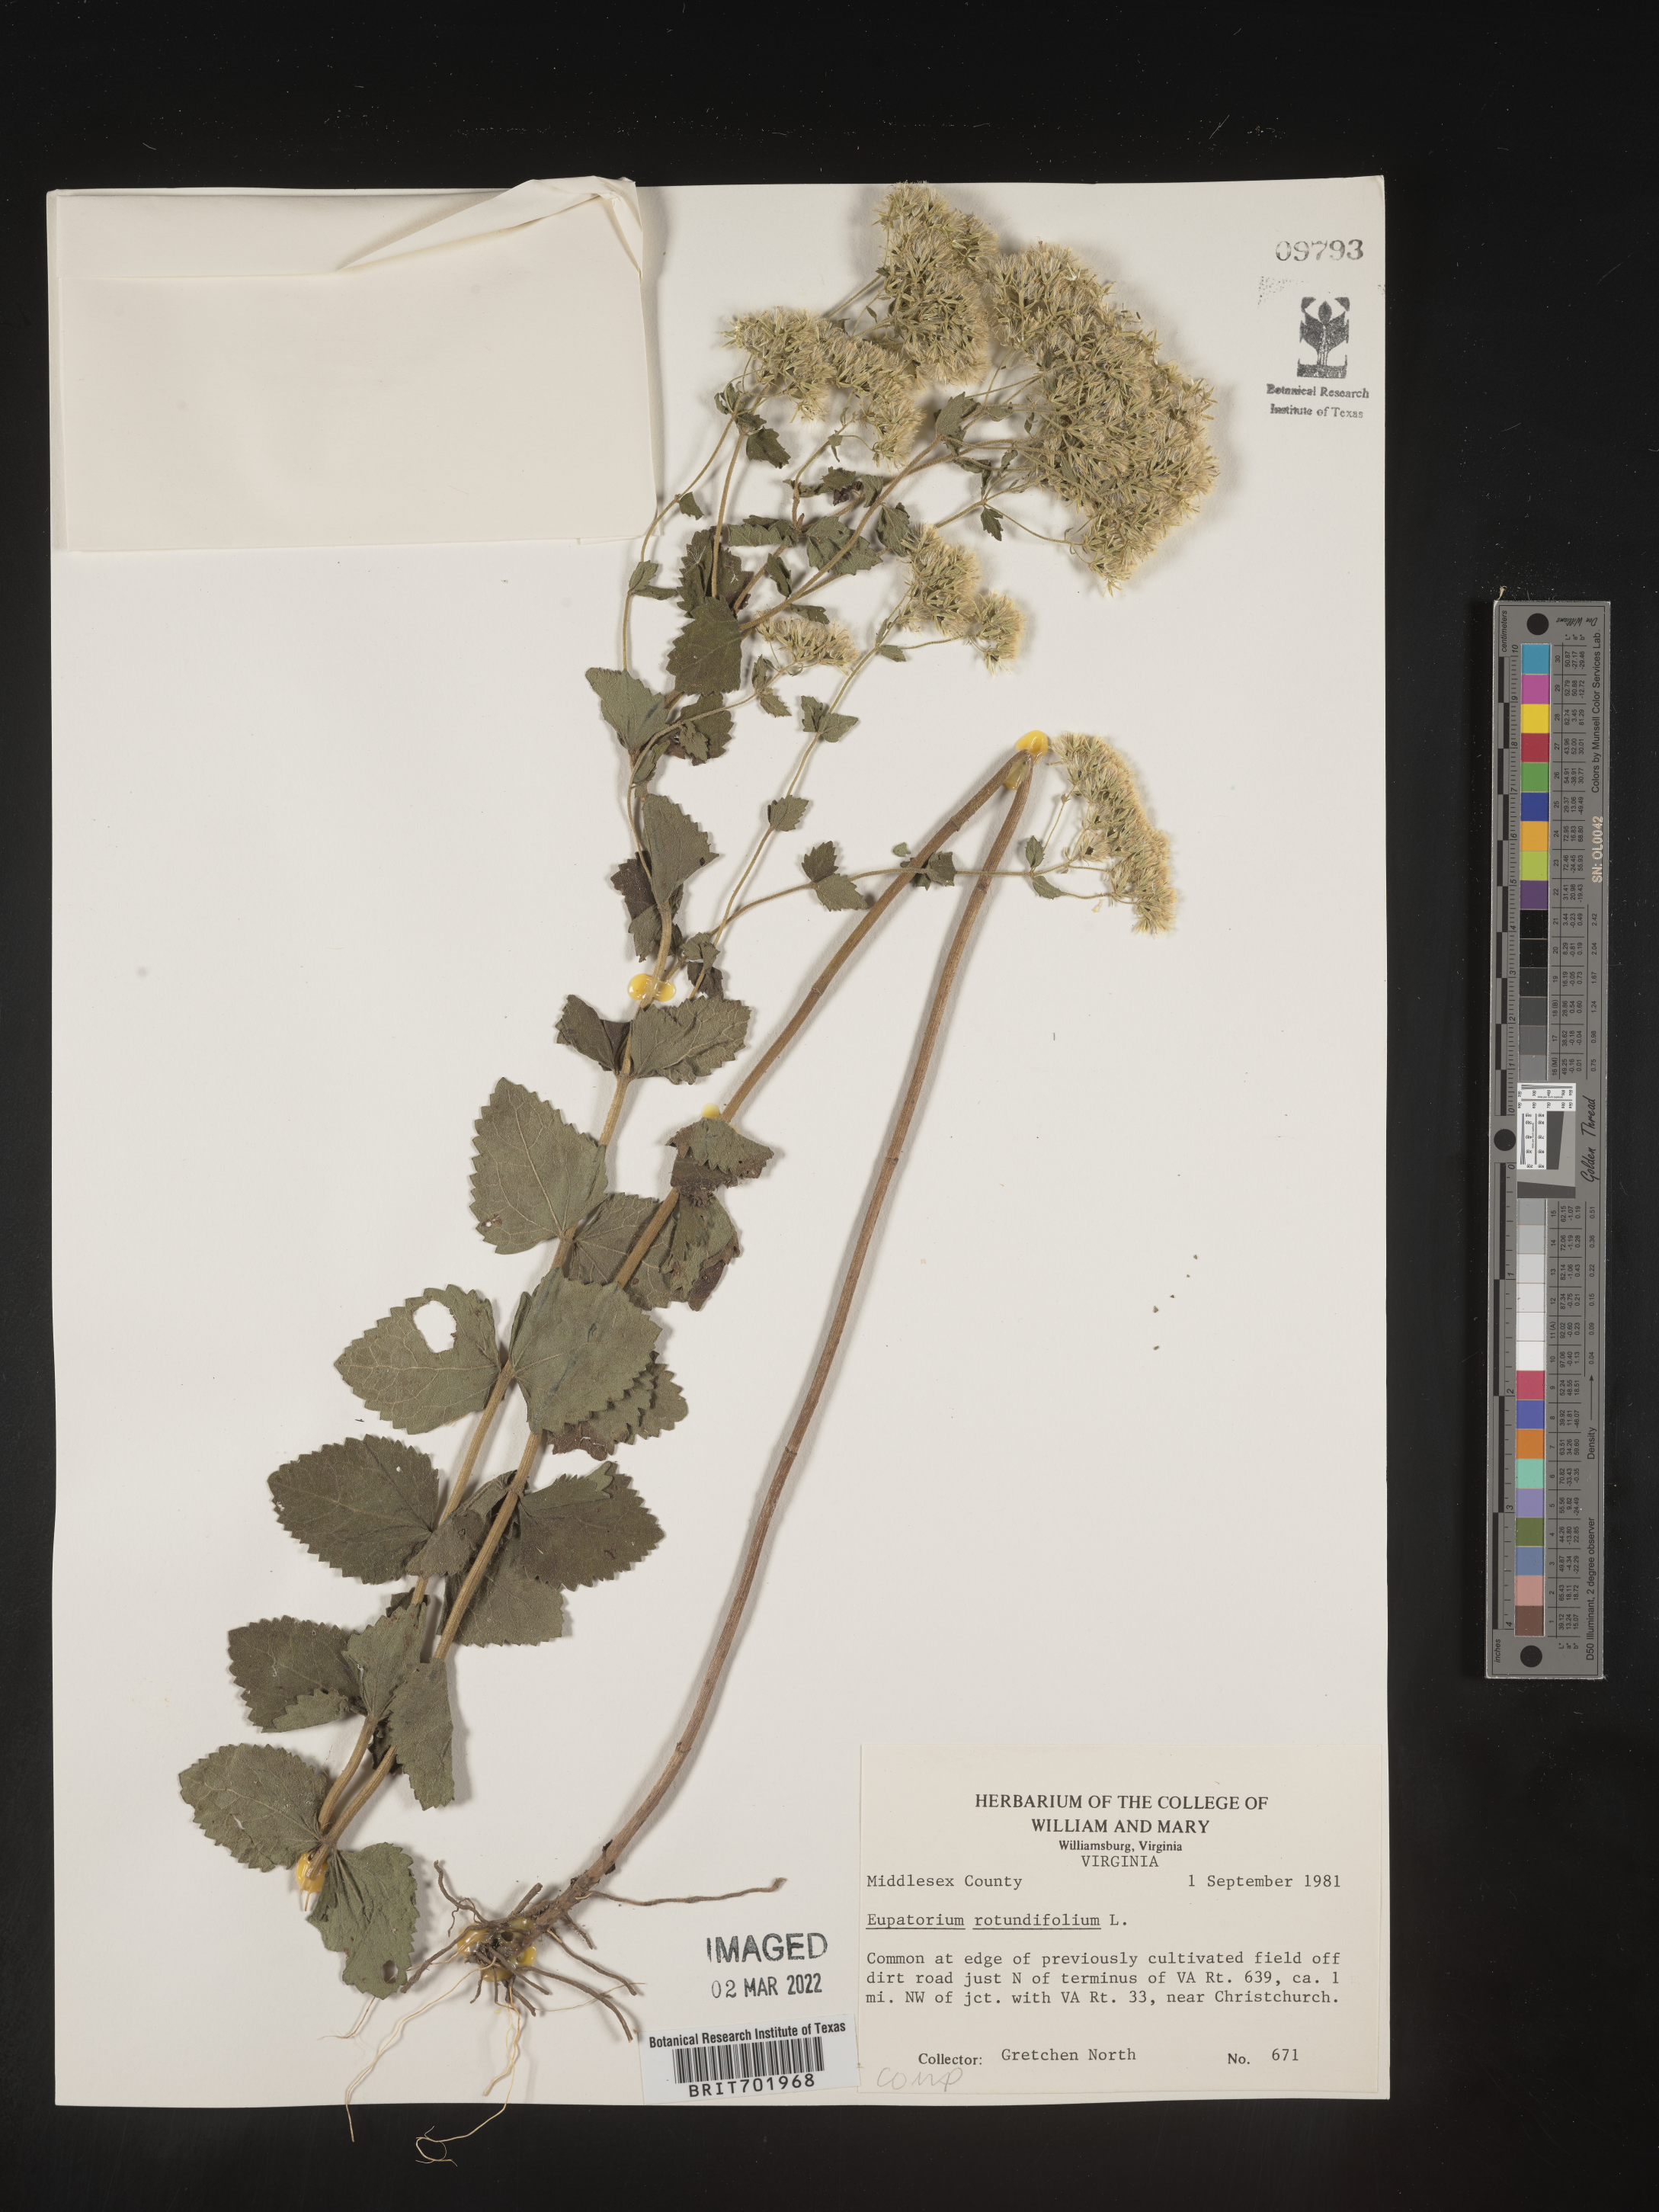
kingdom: Plantae
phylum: Tracheophyta
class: Magnoliopsida
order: Asterales
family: Asteraceae
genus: Eupatorium
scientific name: Eupatorium rotundifolium
